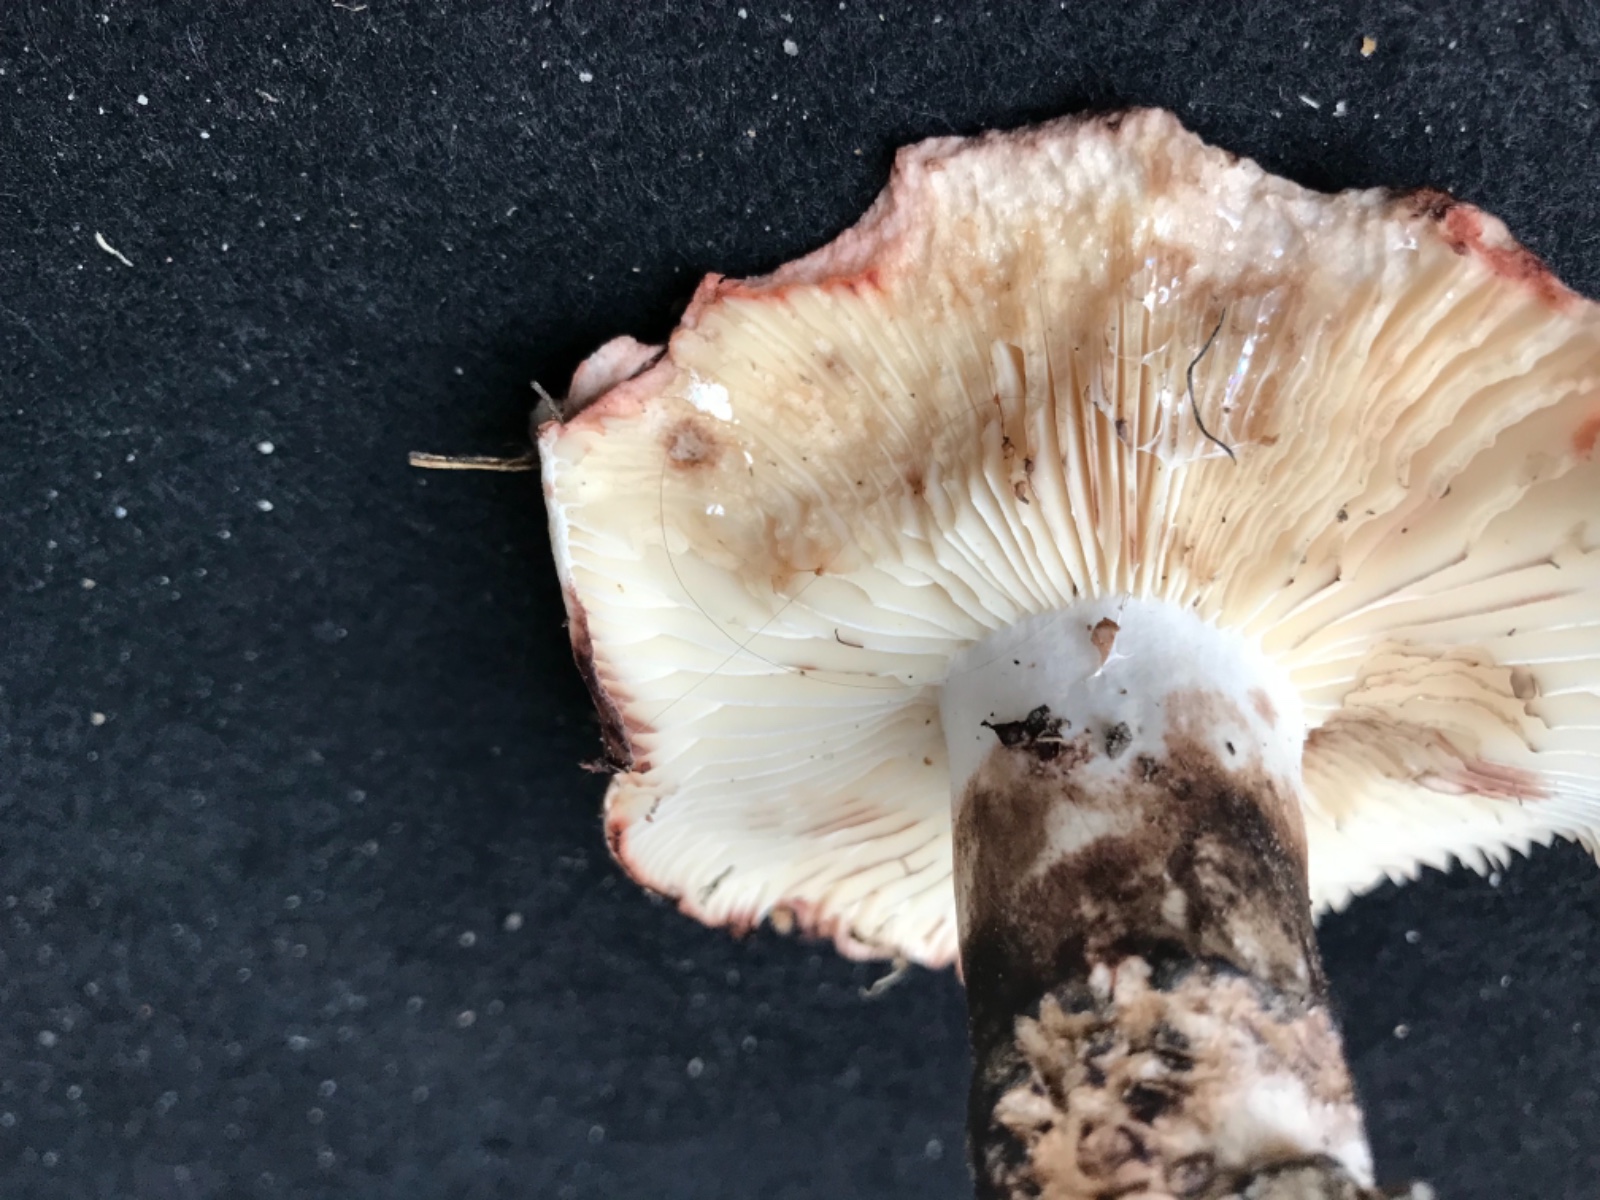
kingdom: Fungi
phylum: Basidiomycota
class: Agaricomycetes
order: Russulales
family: Russulaceae
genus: Russula
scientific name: Russula adusta
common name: sværtende skørhat
